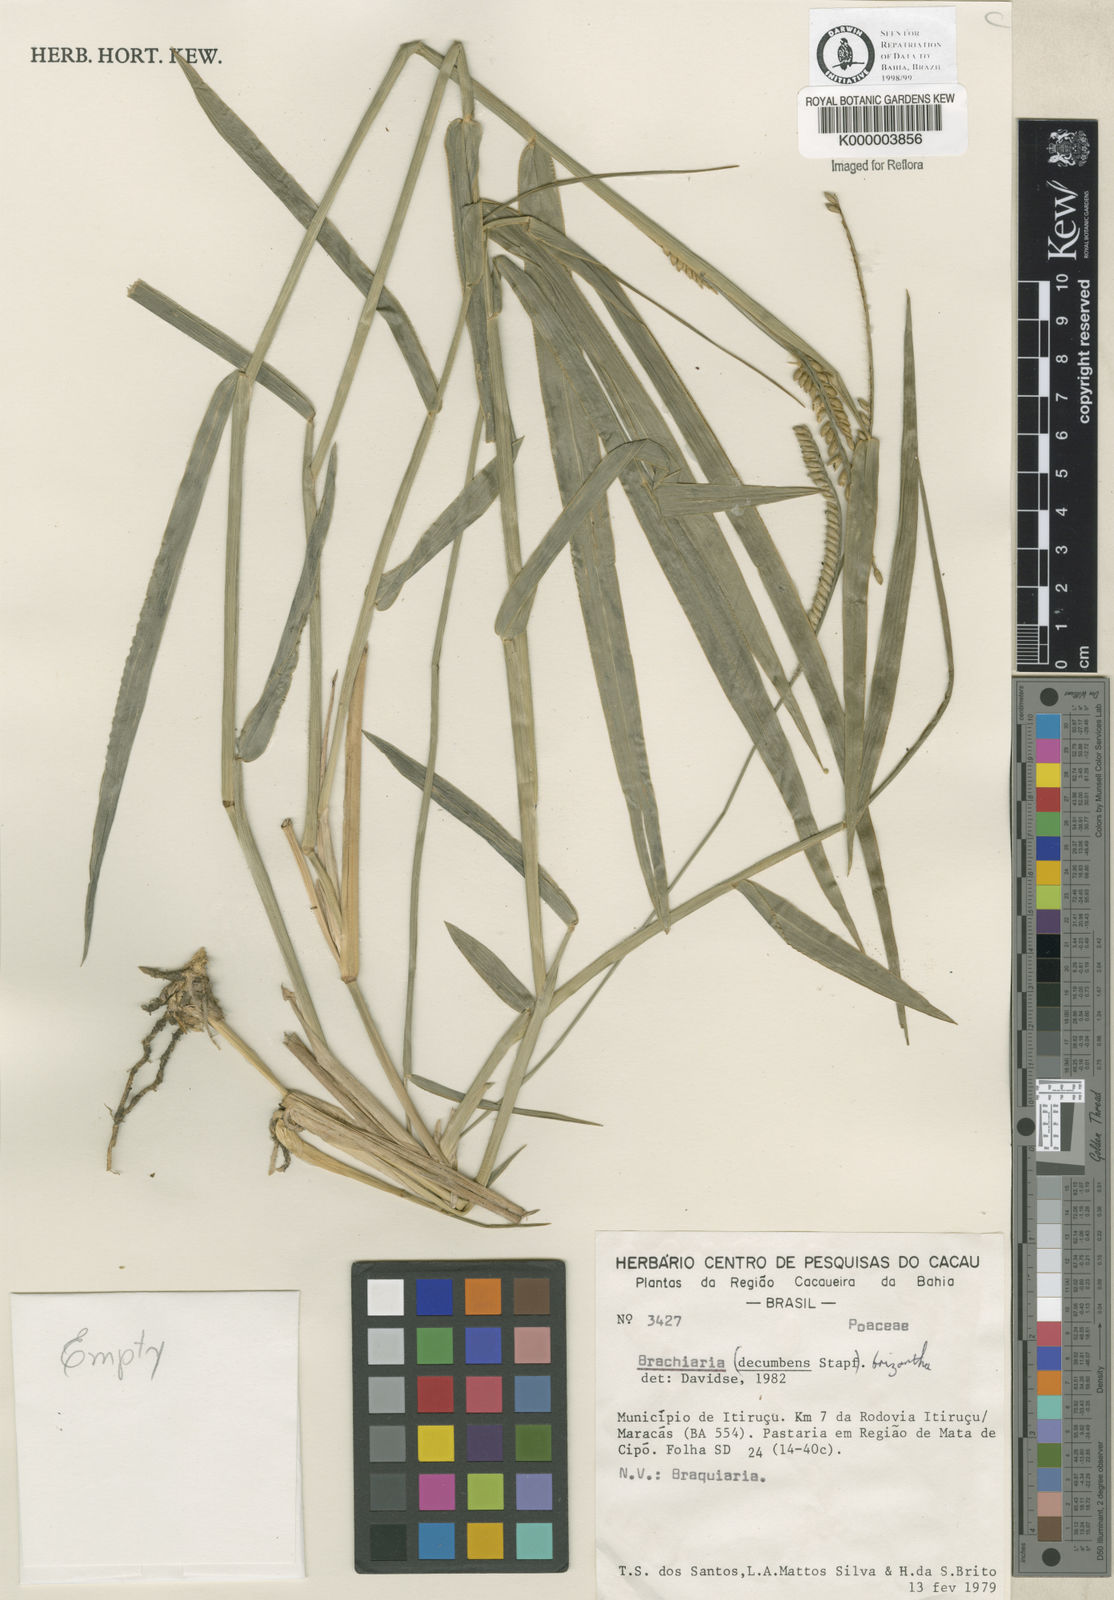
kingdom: Plantae
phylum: Tracheophyta
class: Liliopsida
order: Poales
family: Poaceae
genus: Urochloa
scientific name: Urochloa brizantha
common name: Palisade signalgrass
